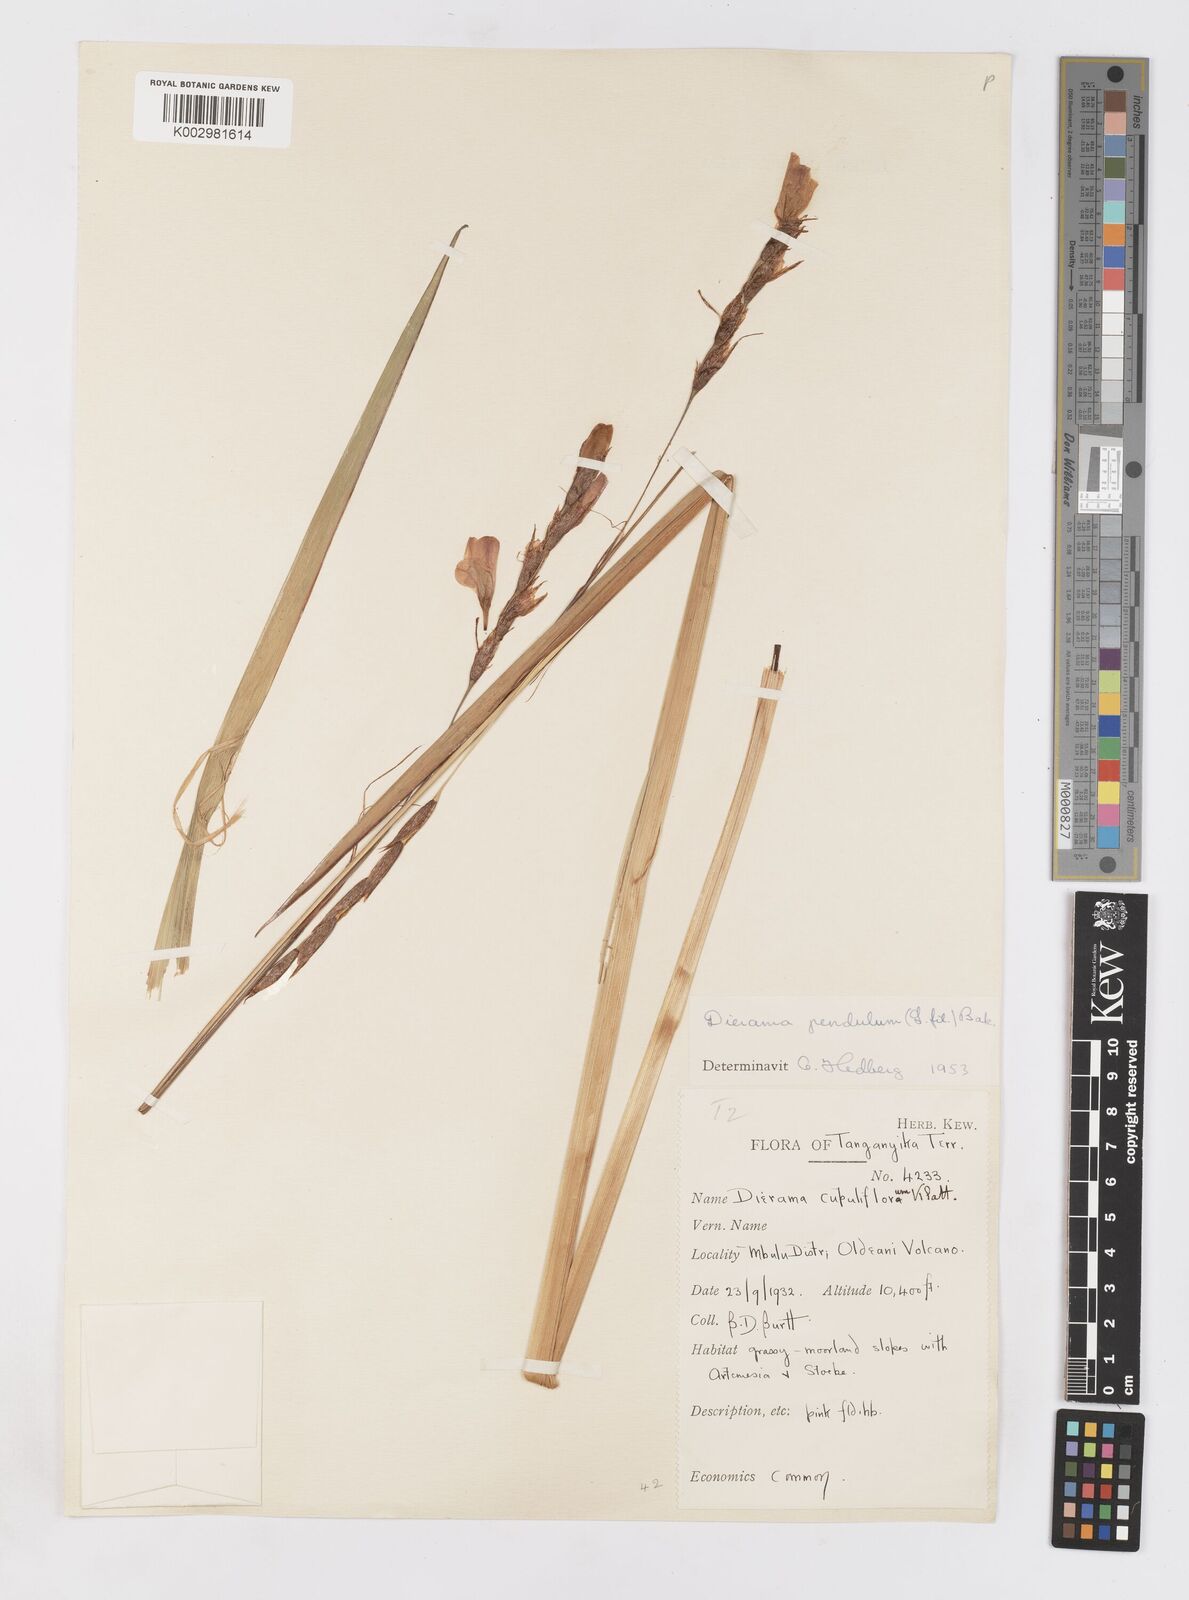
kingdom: Plantae
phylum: Tracheophyta
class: Liliopsida
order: Asparagales
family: Iridaceae
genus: Dierama
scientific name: Dierama cupuliflorum
